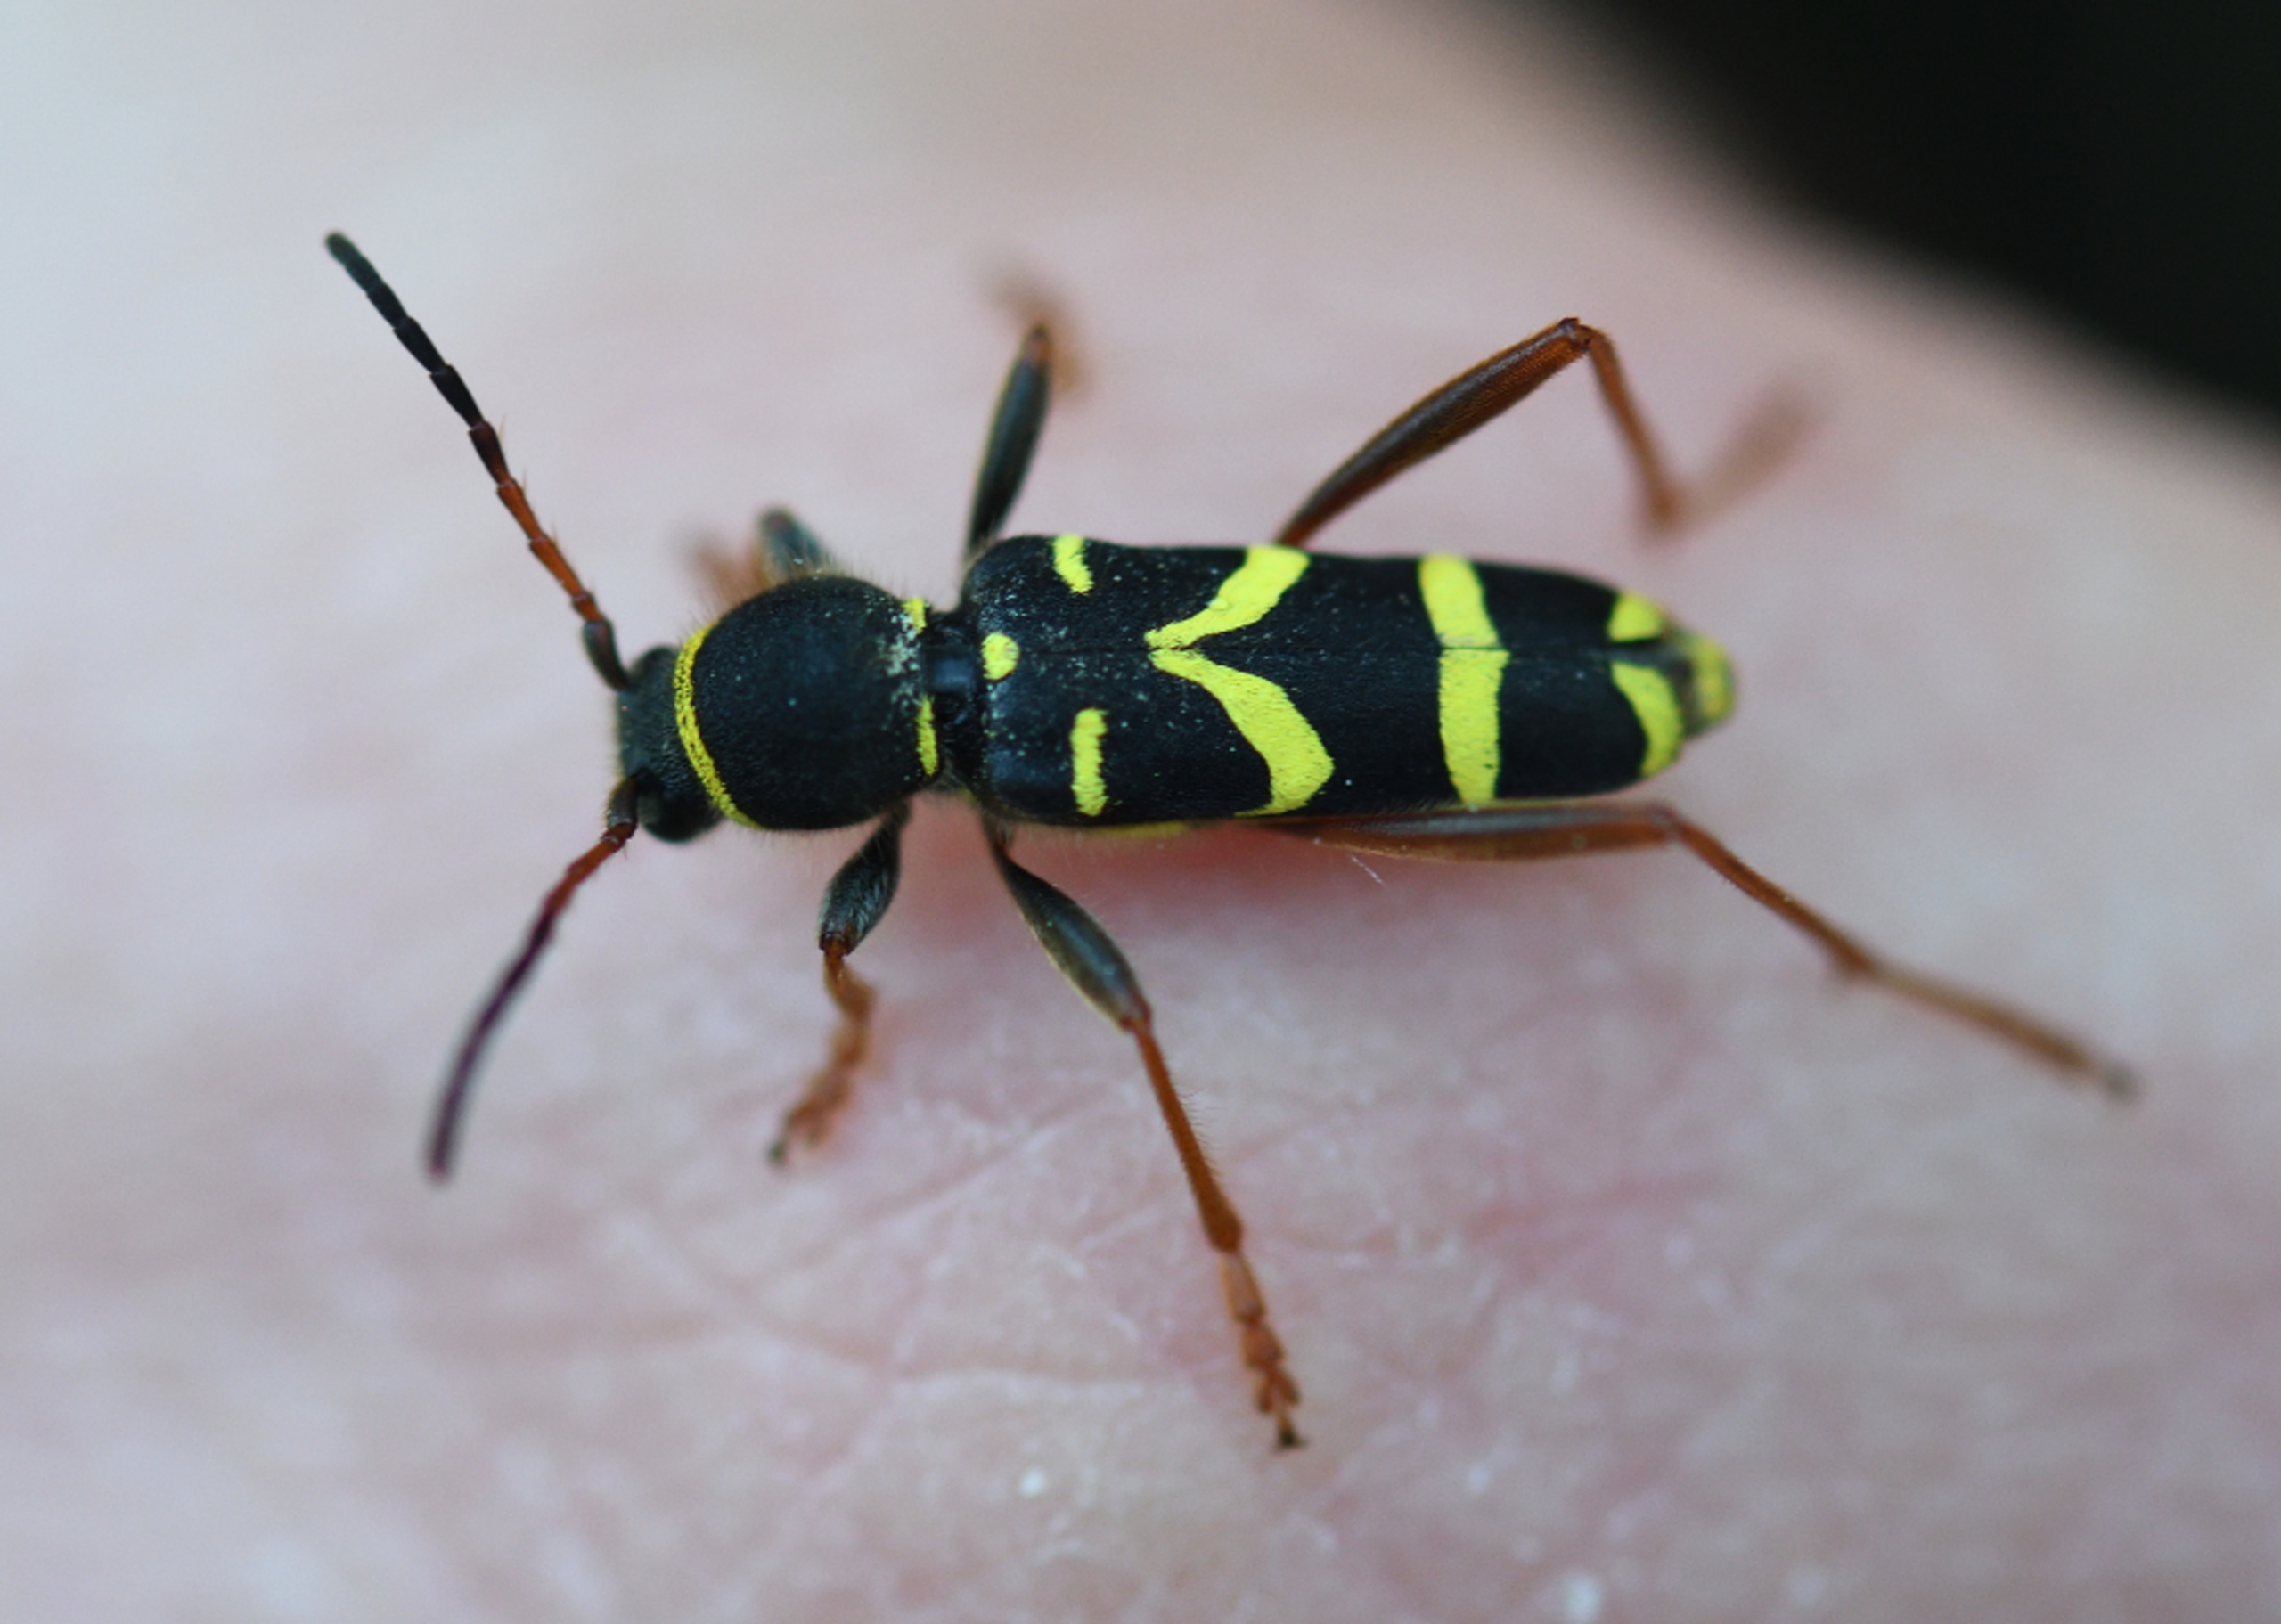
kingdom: Animalia
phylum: Arthropoda
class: Insecta
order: Coleoptera
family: Cerambycidae
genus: Clytus
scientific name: Clytus arietis
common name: Lille hvepsebuk
